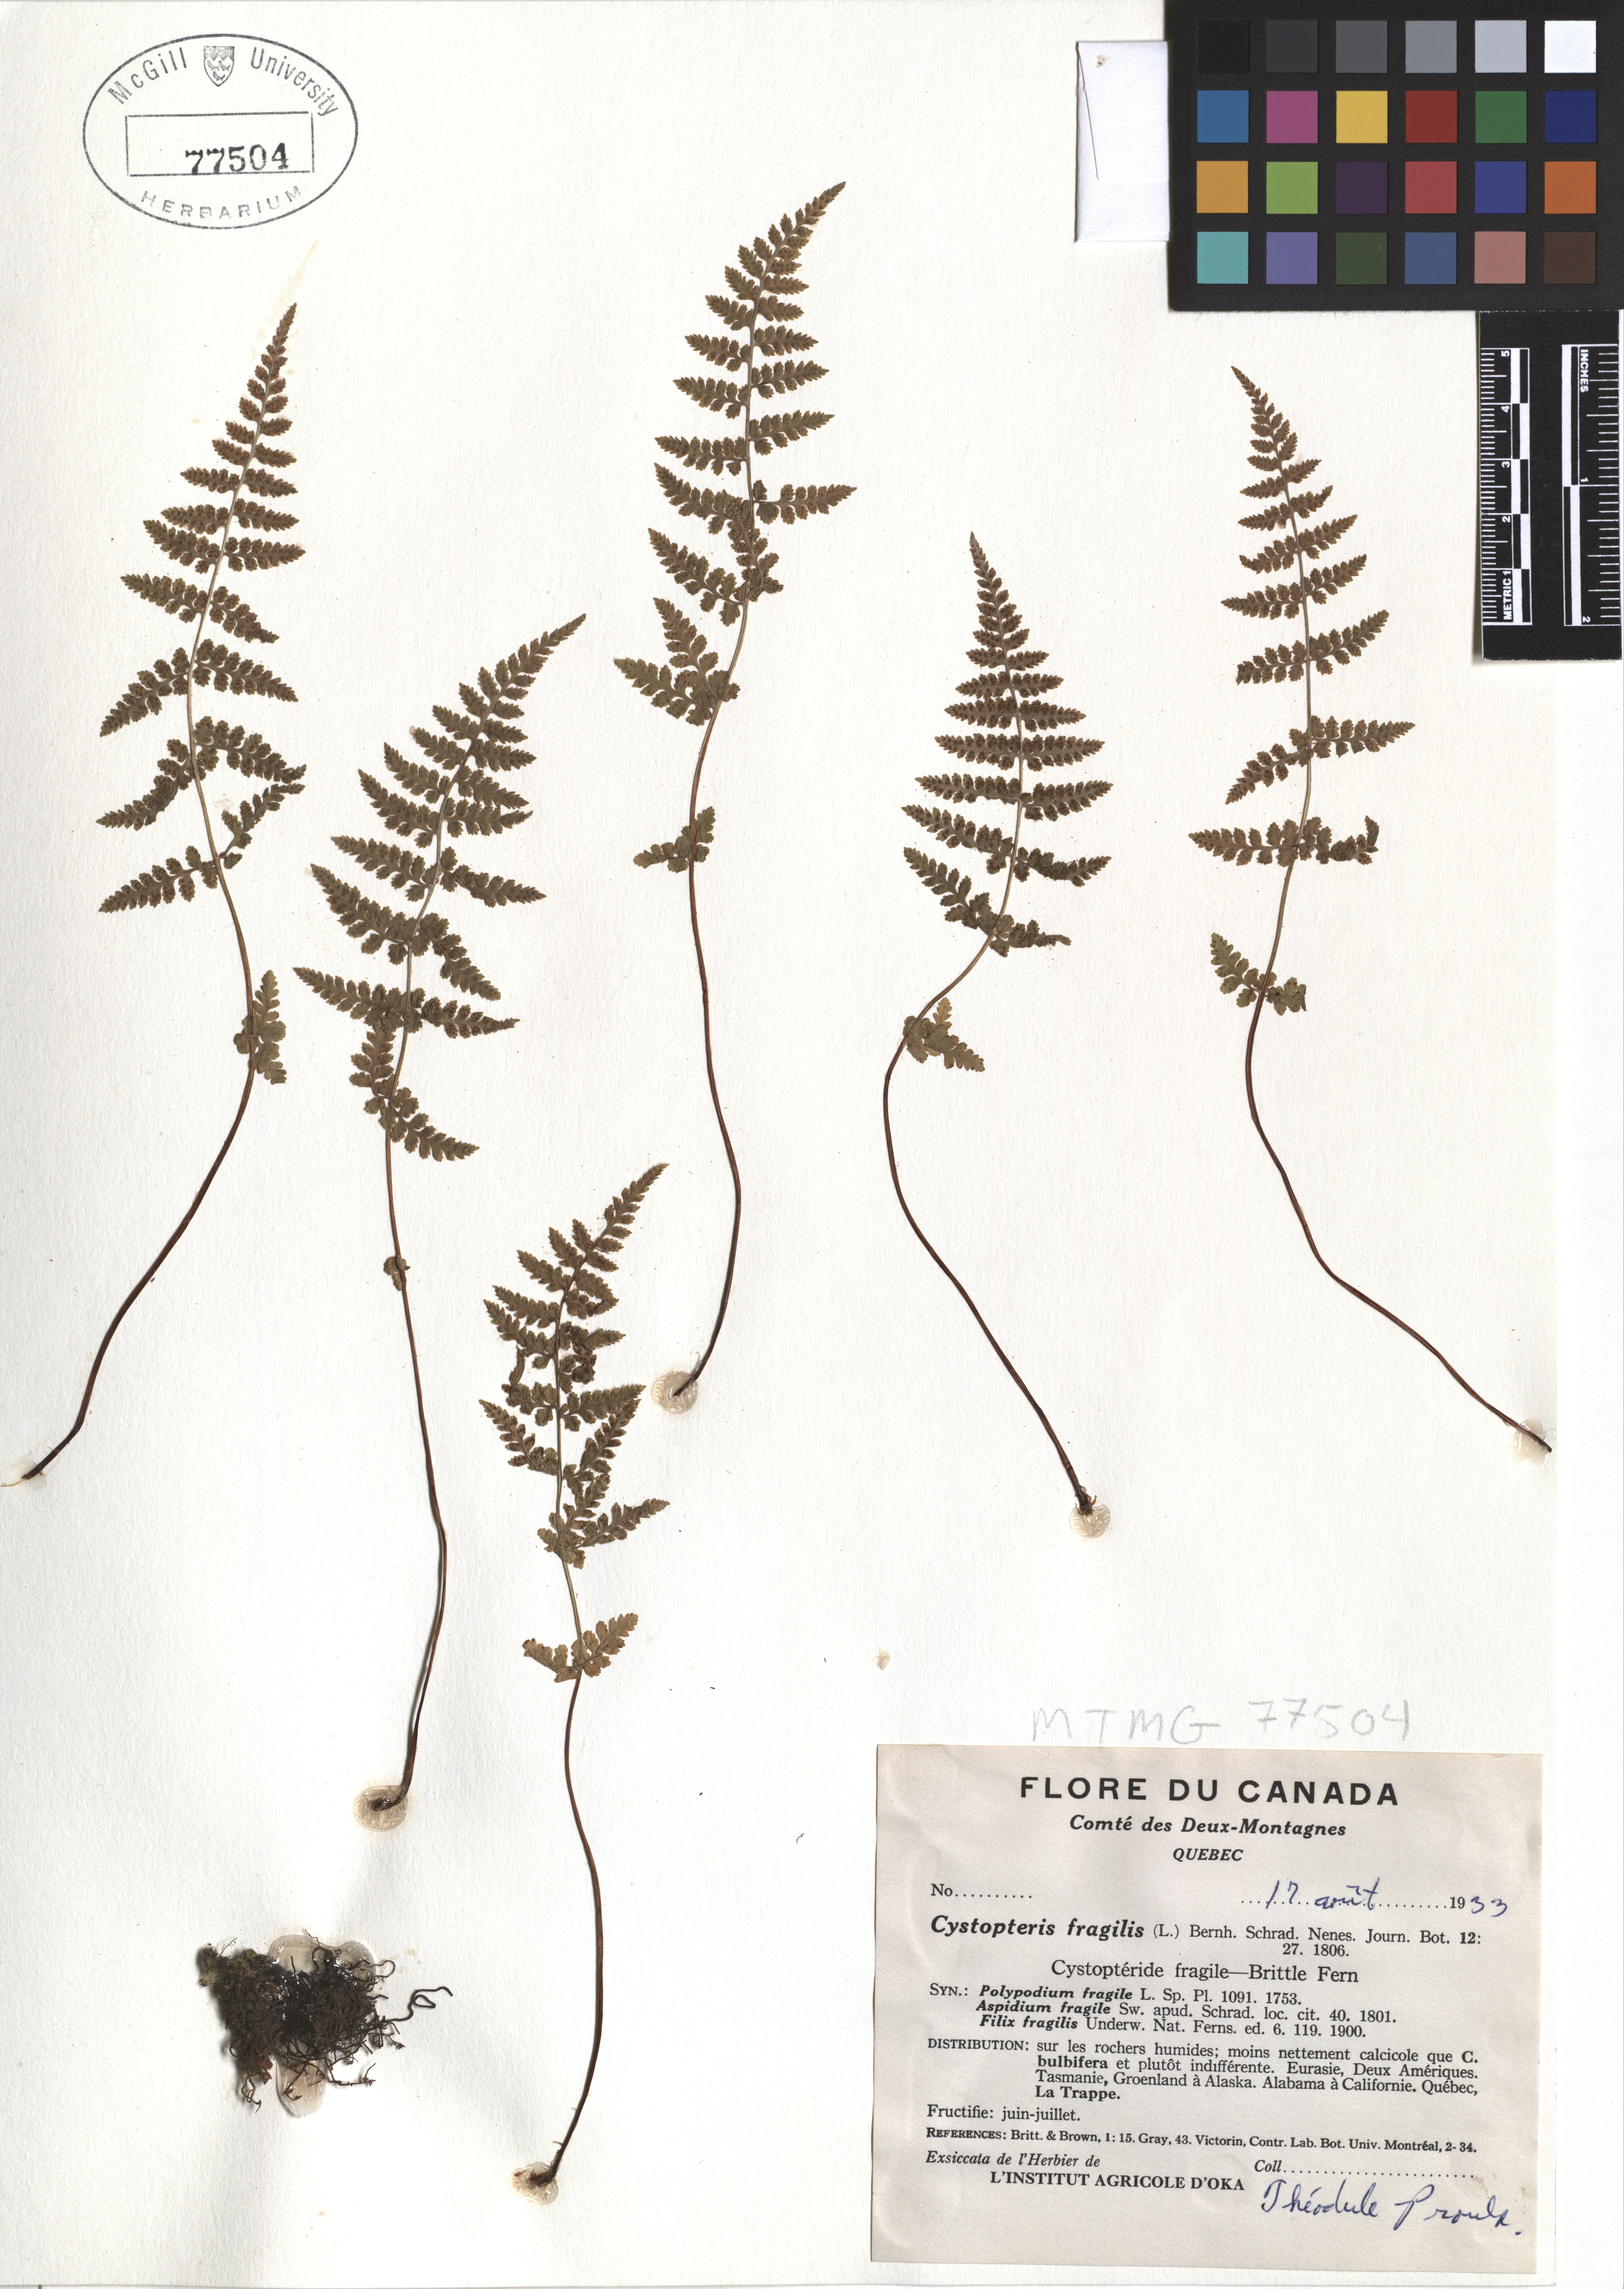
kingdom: Plantae
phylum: Tracheophyta
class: Polypodiopsida
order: Polypodiales
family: Cystopteridaceae
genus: Cystopteris
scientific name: Cystopteris fragilis
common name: Brittle bladder fern
